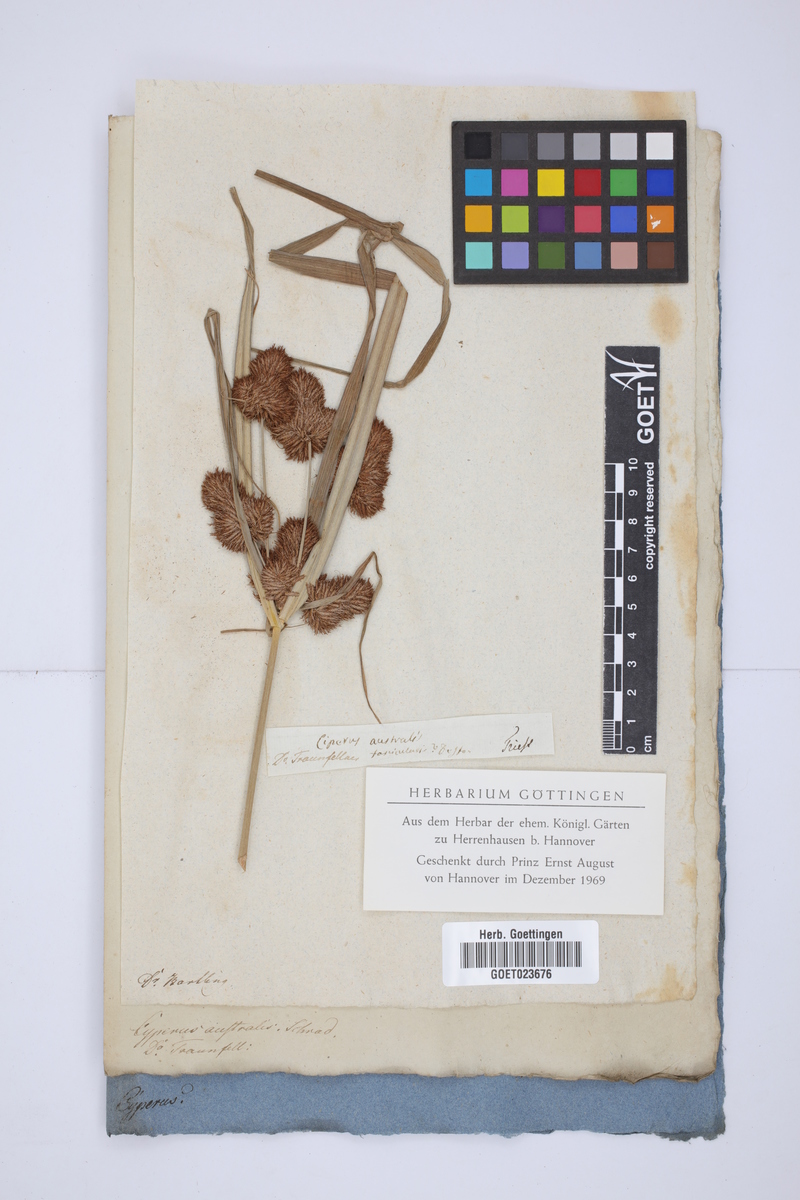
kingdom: Plantae
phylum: Tracheophyta
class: Liliopsida
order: Poales
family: Cyperaceae
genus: Cyperus
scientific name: Cyperus glomeratus
